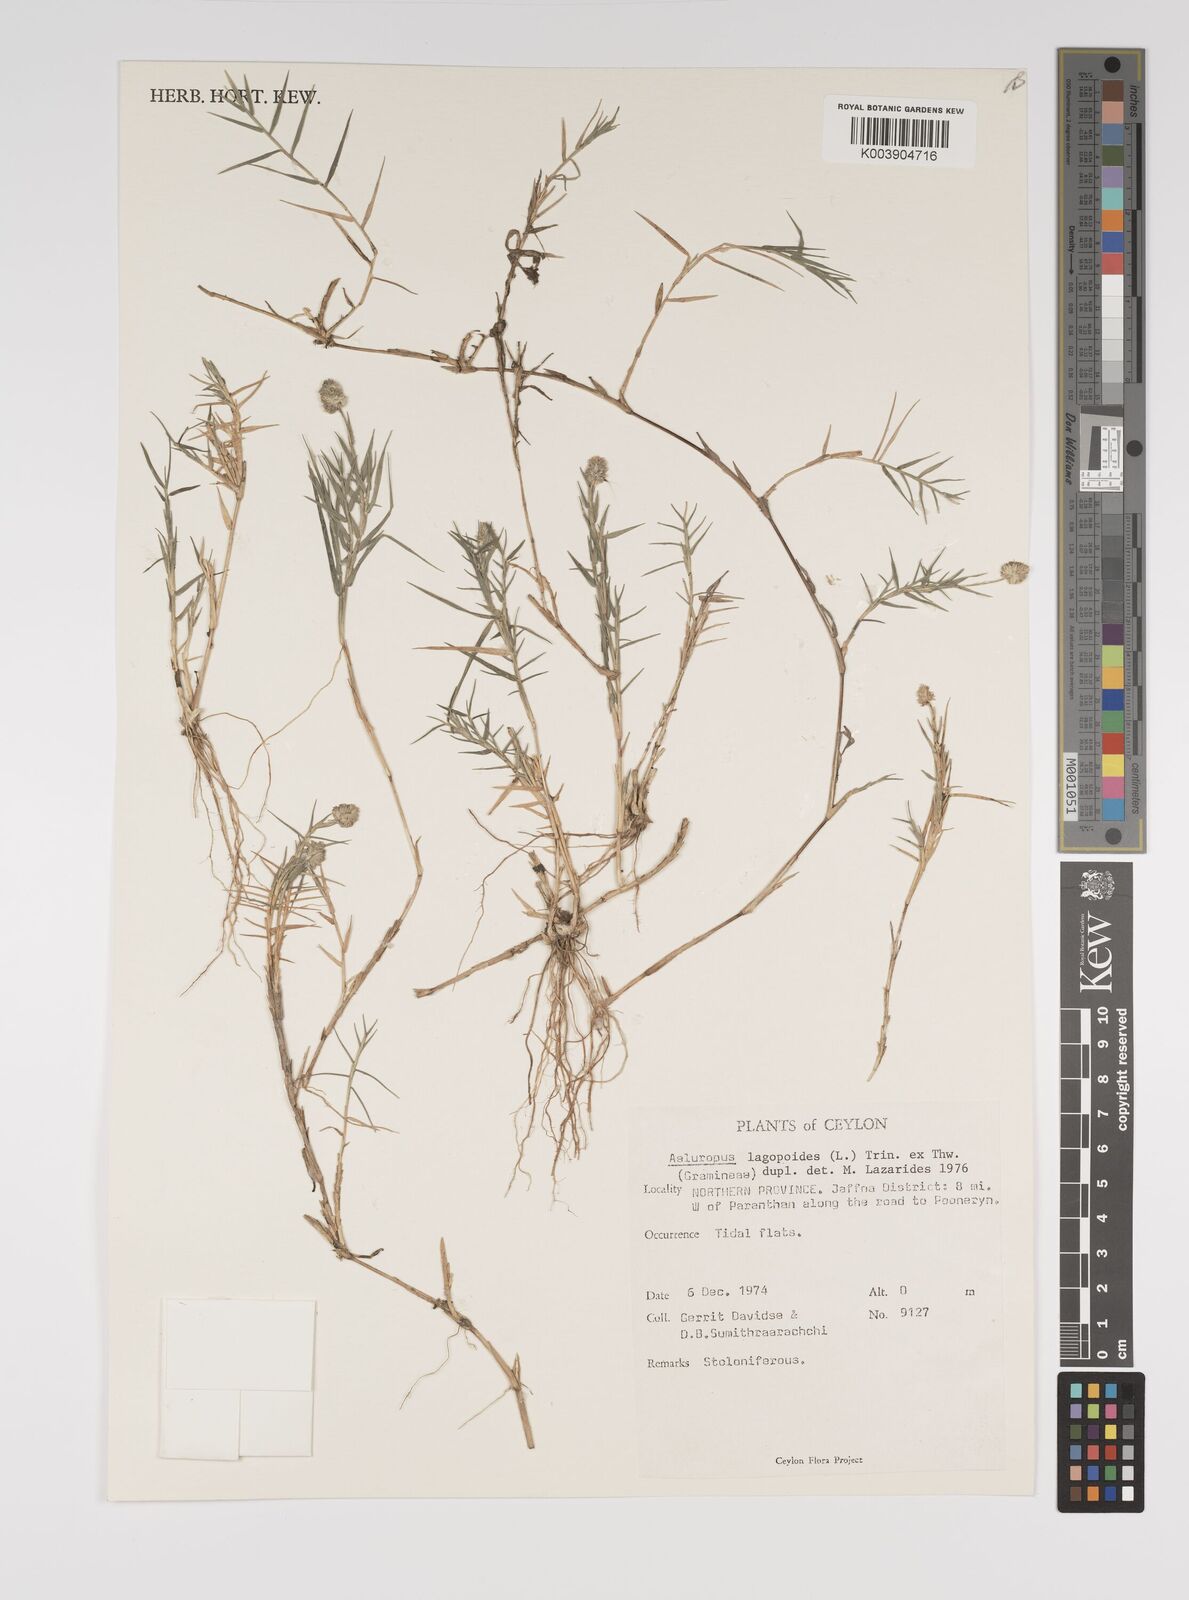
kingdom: Plantae
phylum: Tracheophyta
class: Liliopsida
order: Poales
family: Poaceae
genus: Aeluropus
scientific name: Aeluropus lagopoides
